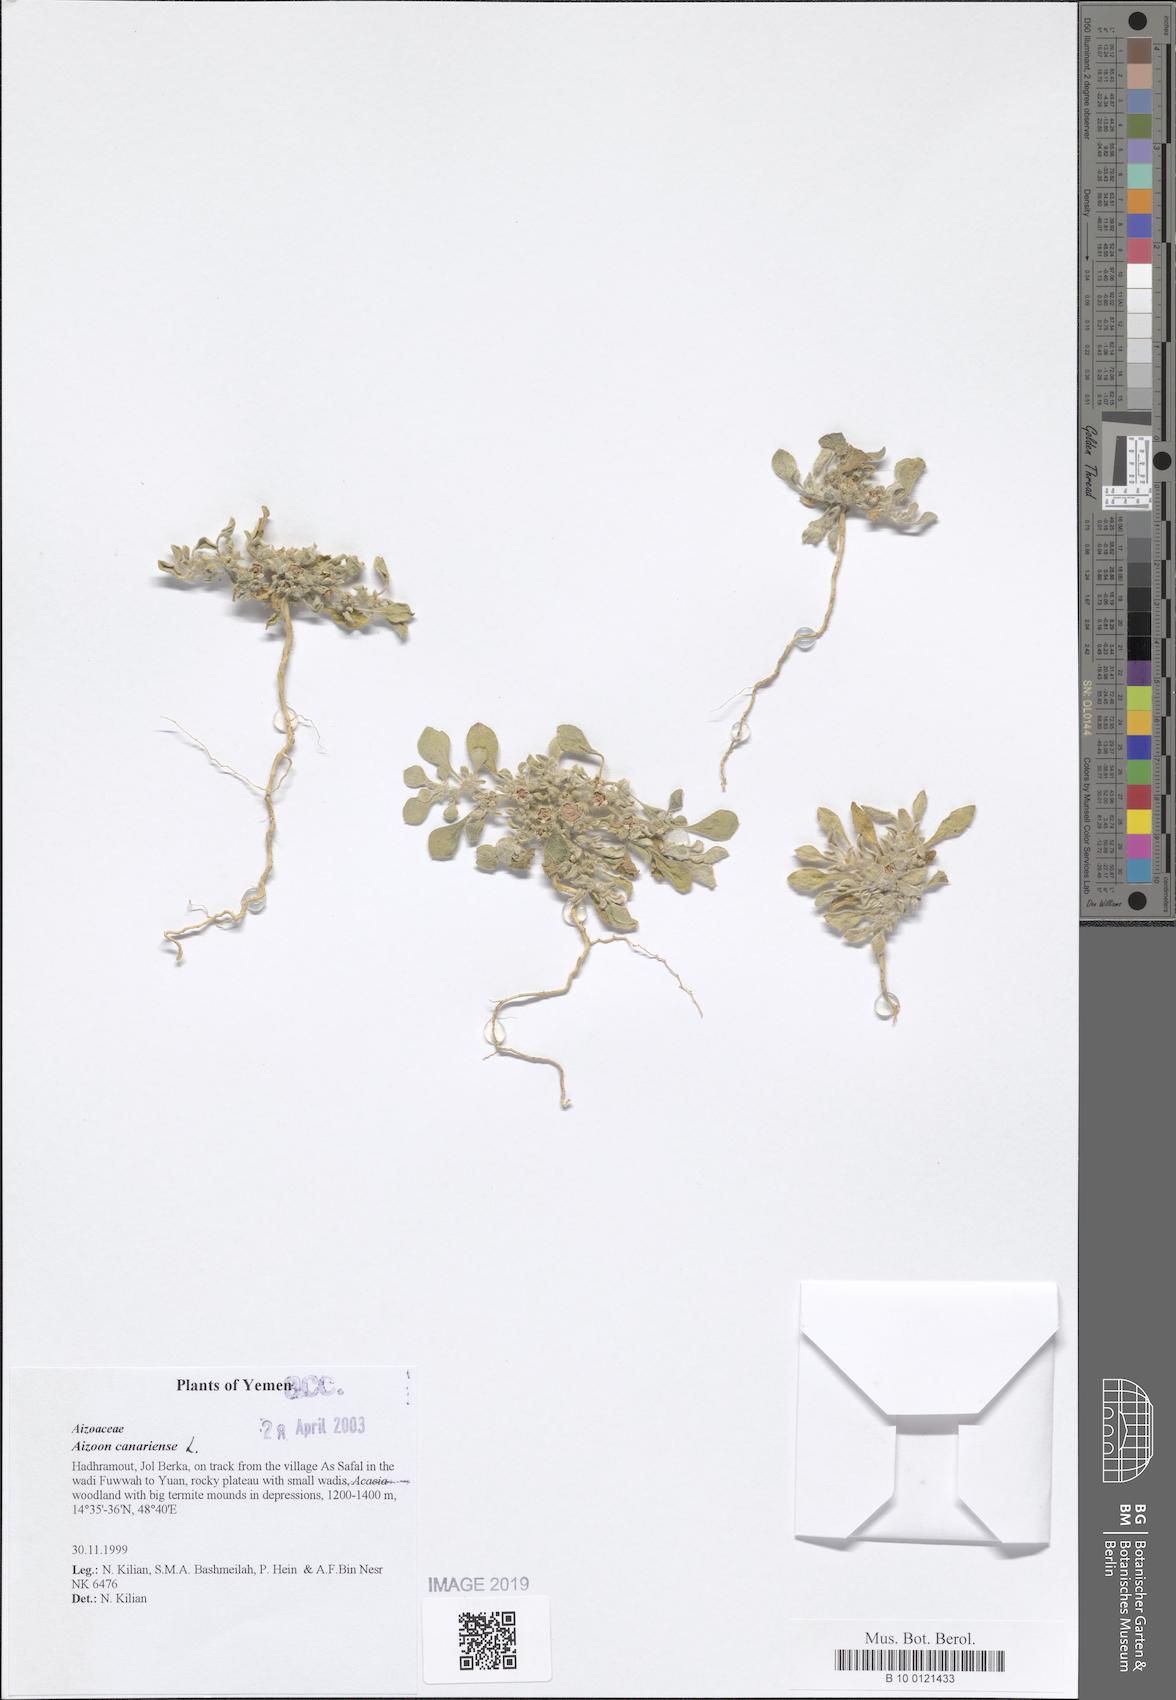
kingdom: Plantae
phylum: Tracheophyta
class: Magnoliopsida
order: Caryophyllales
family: Aizoaceae
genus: Aizoon
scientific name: Aizoon canariense
